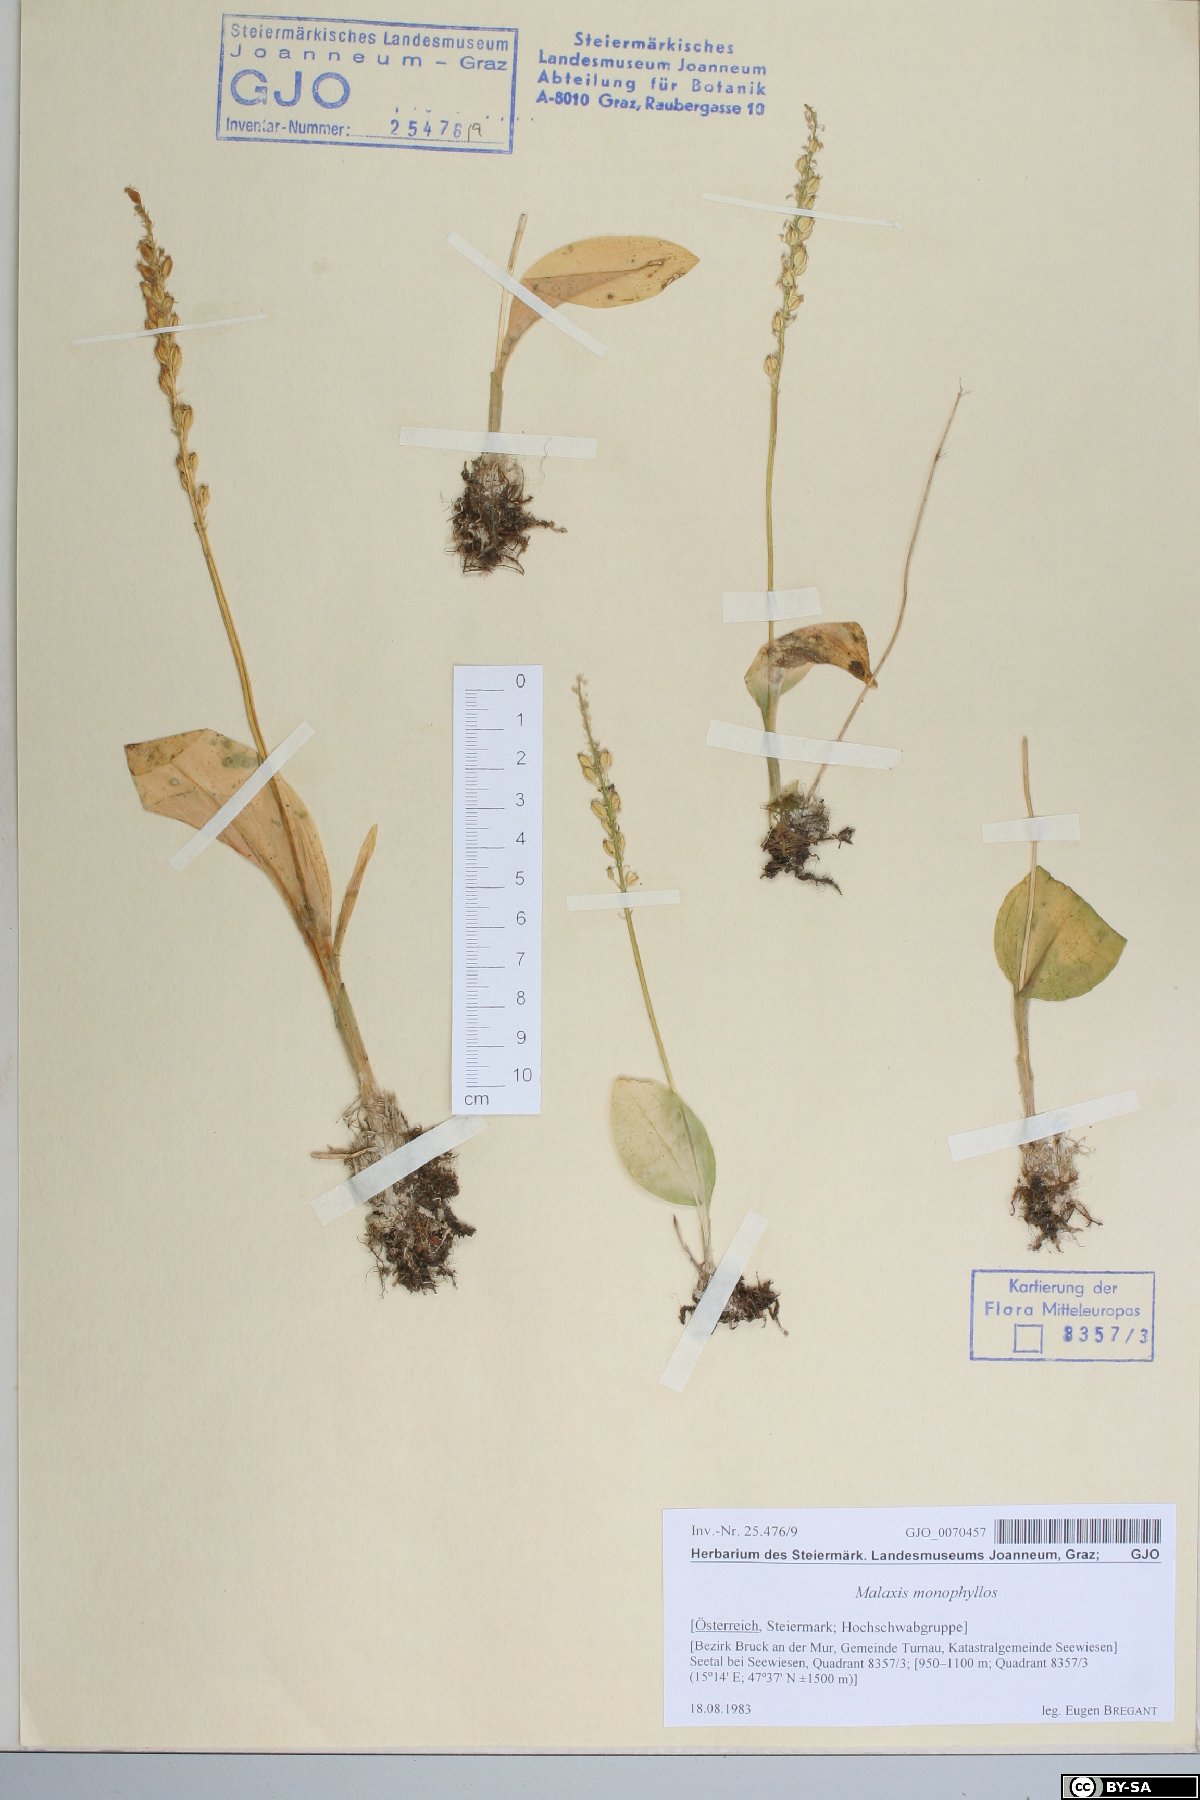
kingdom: Plantae
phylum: Tracheophyta
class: Liliopsida
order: Asparagales
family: Orchidaceae
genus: Malaxis
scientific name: Malaxis monophyllos
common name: White adder's-mouth
